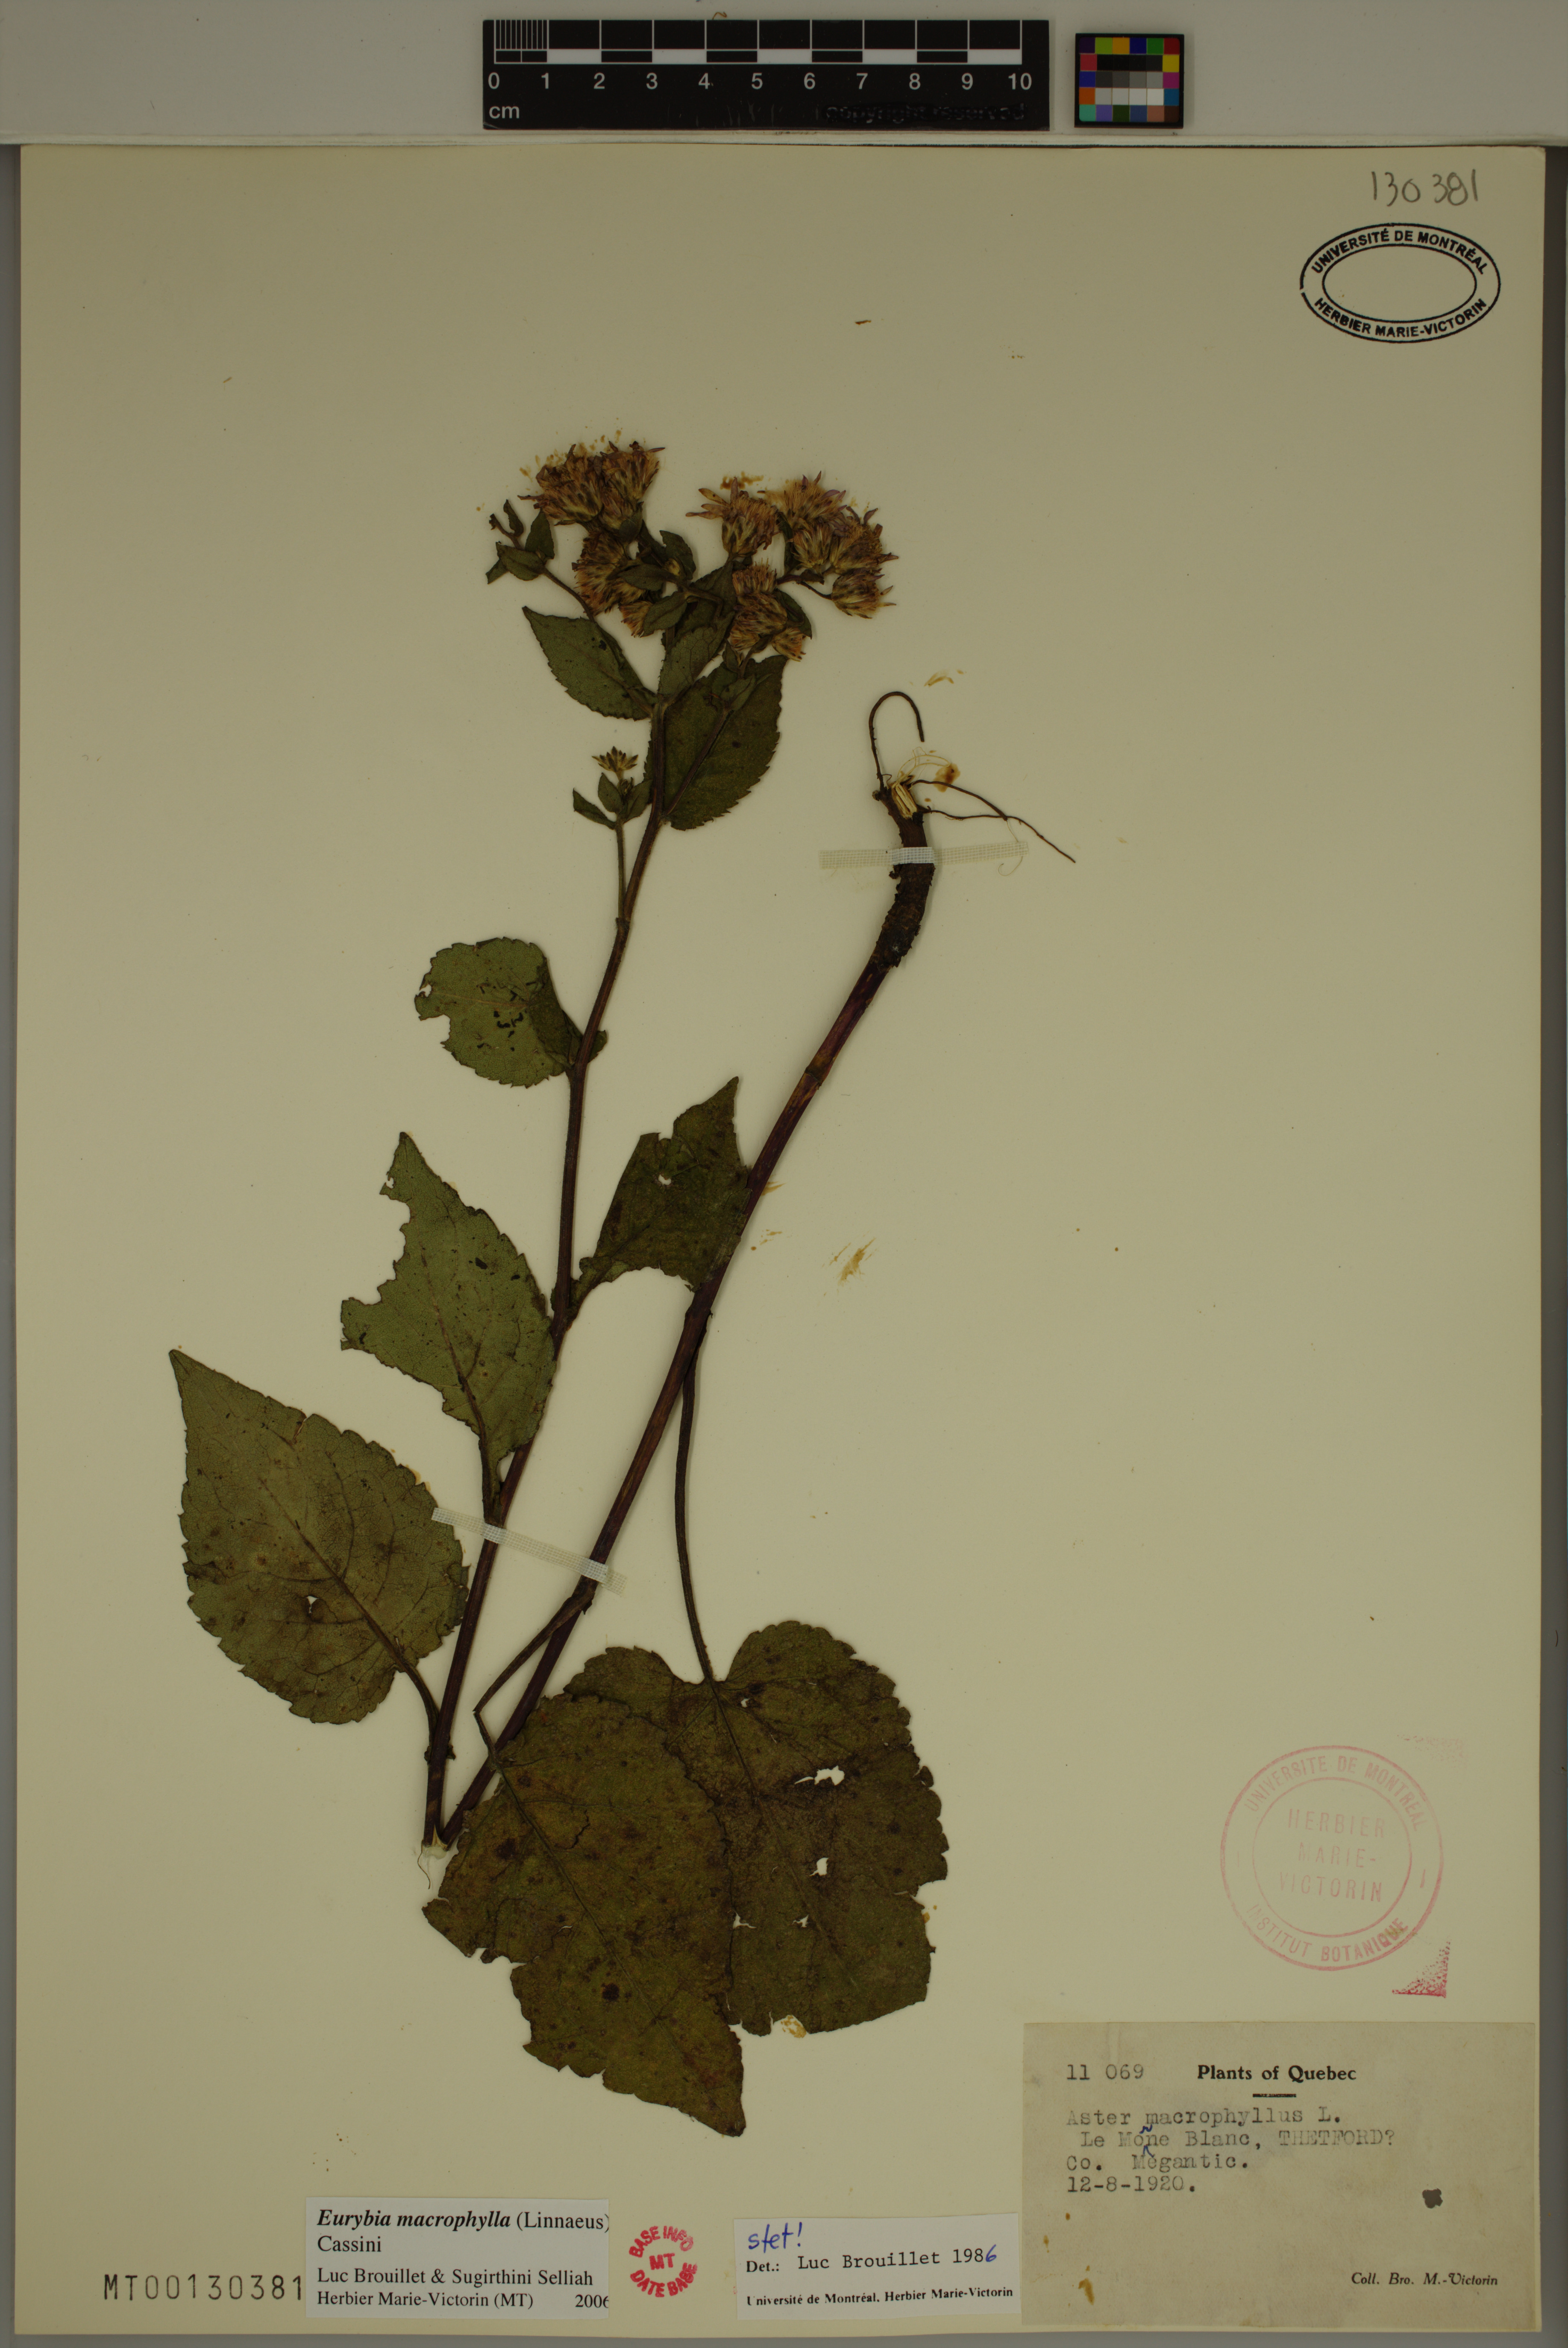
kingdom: Plantae
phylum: Tracheophyta
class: Magnoliopsida
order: Asterales
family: Asteraceae
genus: Eurybia
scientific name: Eurybia macrophylla
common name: Big-leaved aster
